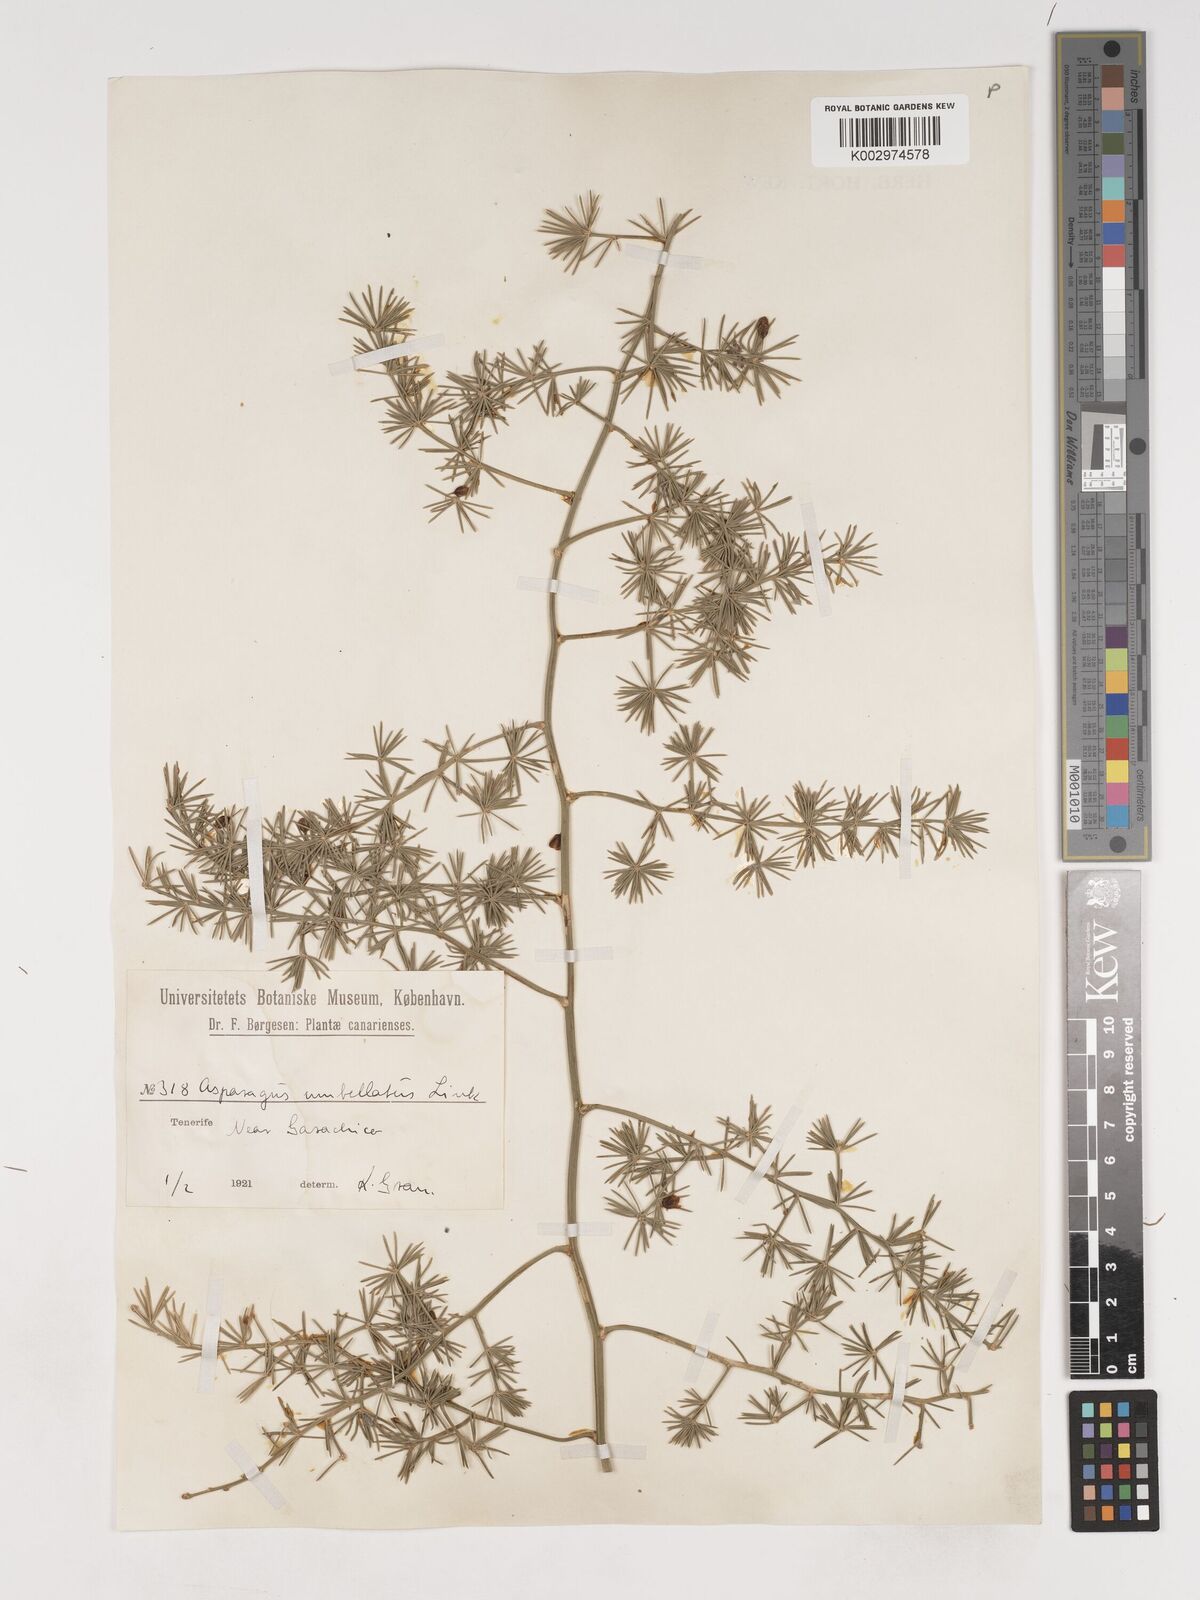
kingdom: Plantae
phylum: Tracheophyta
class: Liliopsida
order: Asparagales
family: Asparagaceae
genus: Asparagus
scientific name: Asparagus umbellatus
